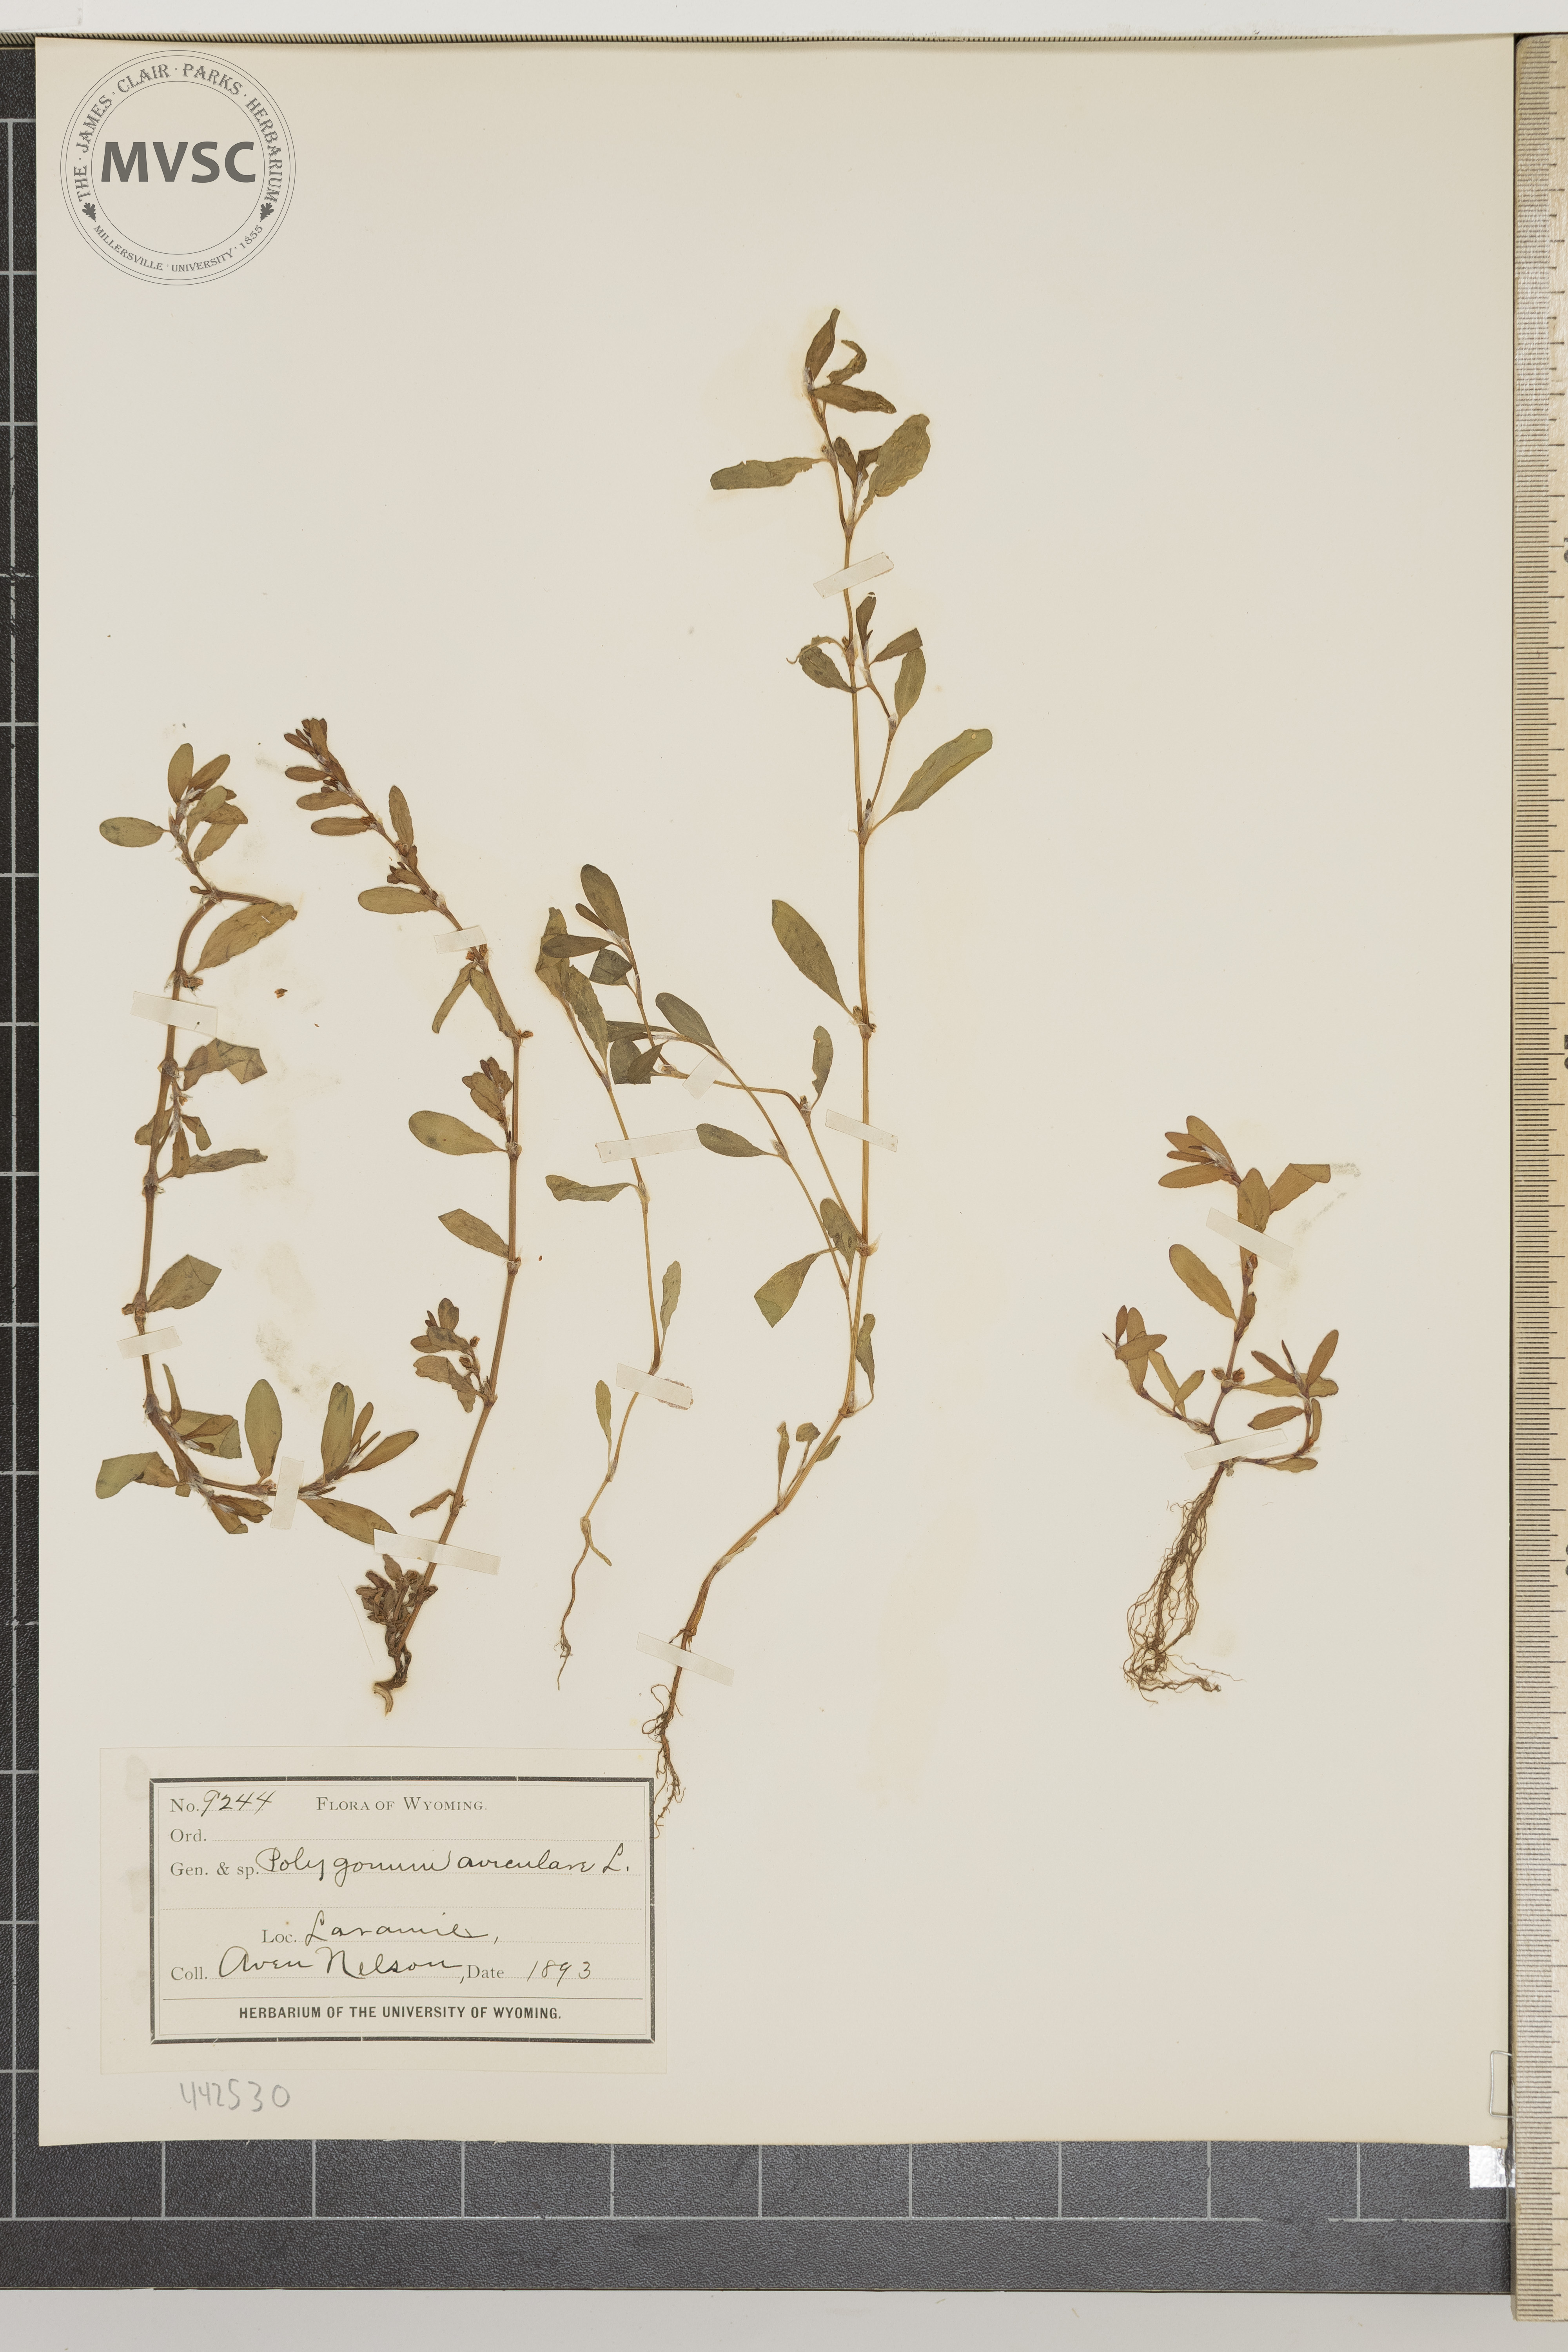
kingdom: Plantae
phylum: Tracheophyta
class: Magnoliopsida
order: Caryophyllales
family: Polygonaceae
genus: Polygonum
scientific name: Polygonum aviculare
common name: Prostrate knotweed
